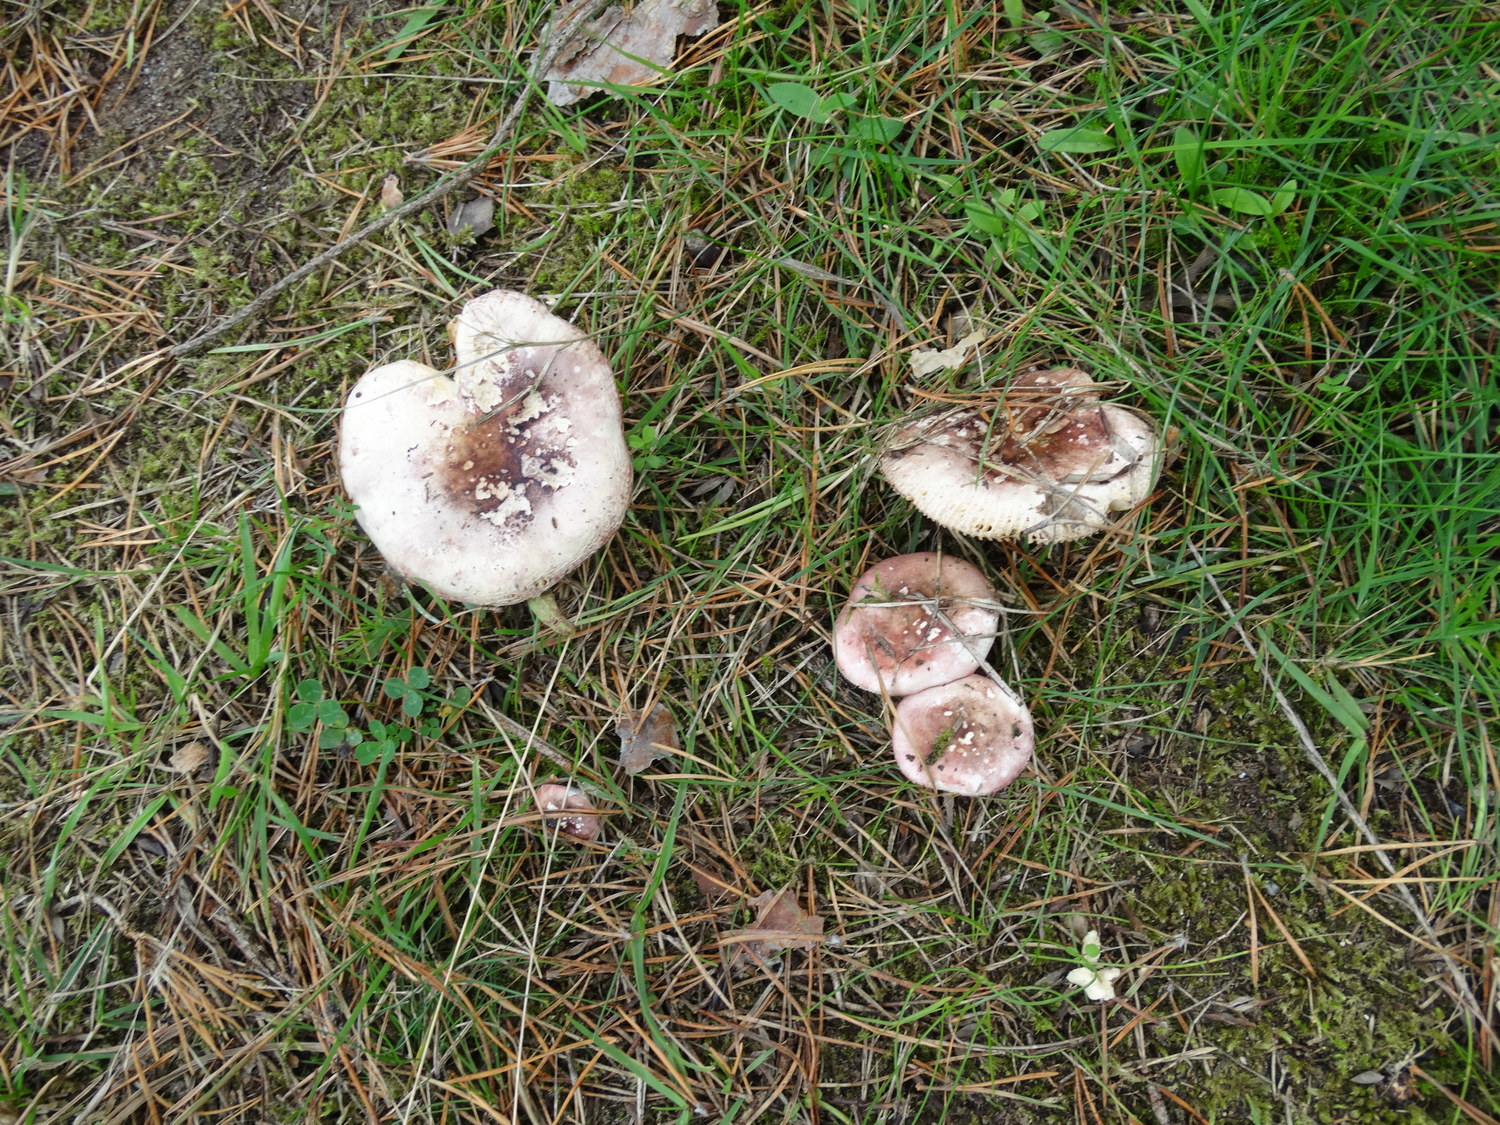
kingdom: Fungi
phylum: Basidiomycota
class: Agaricomycetes
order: Russulales
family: Russulaceae
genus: Russula
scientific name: Russula cessans
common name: fyrre-skørhat
